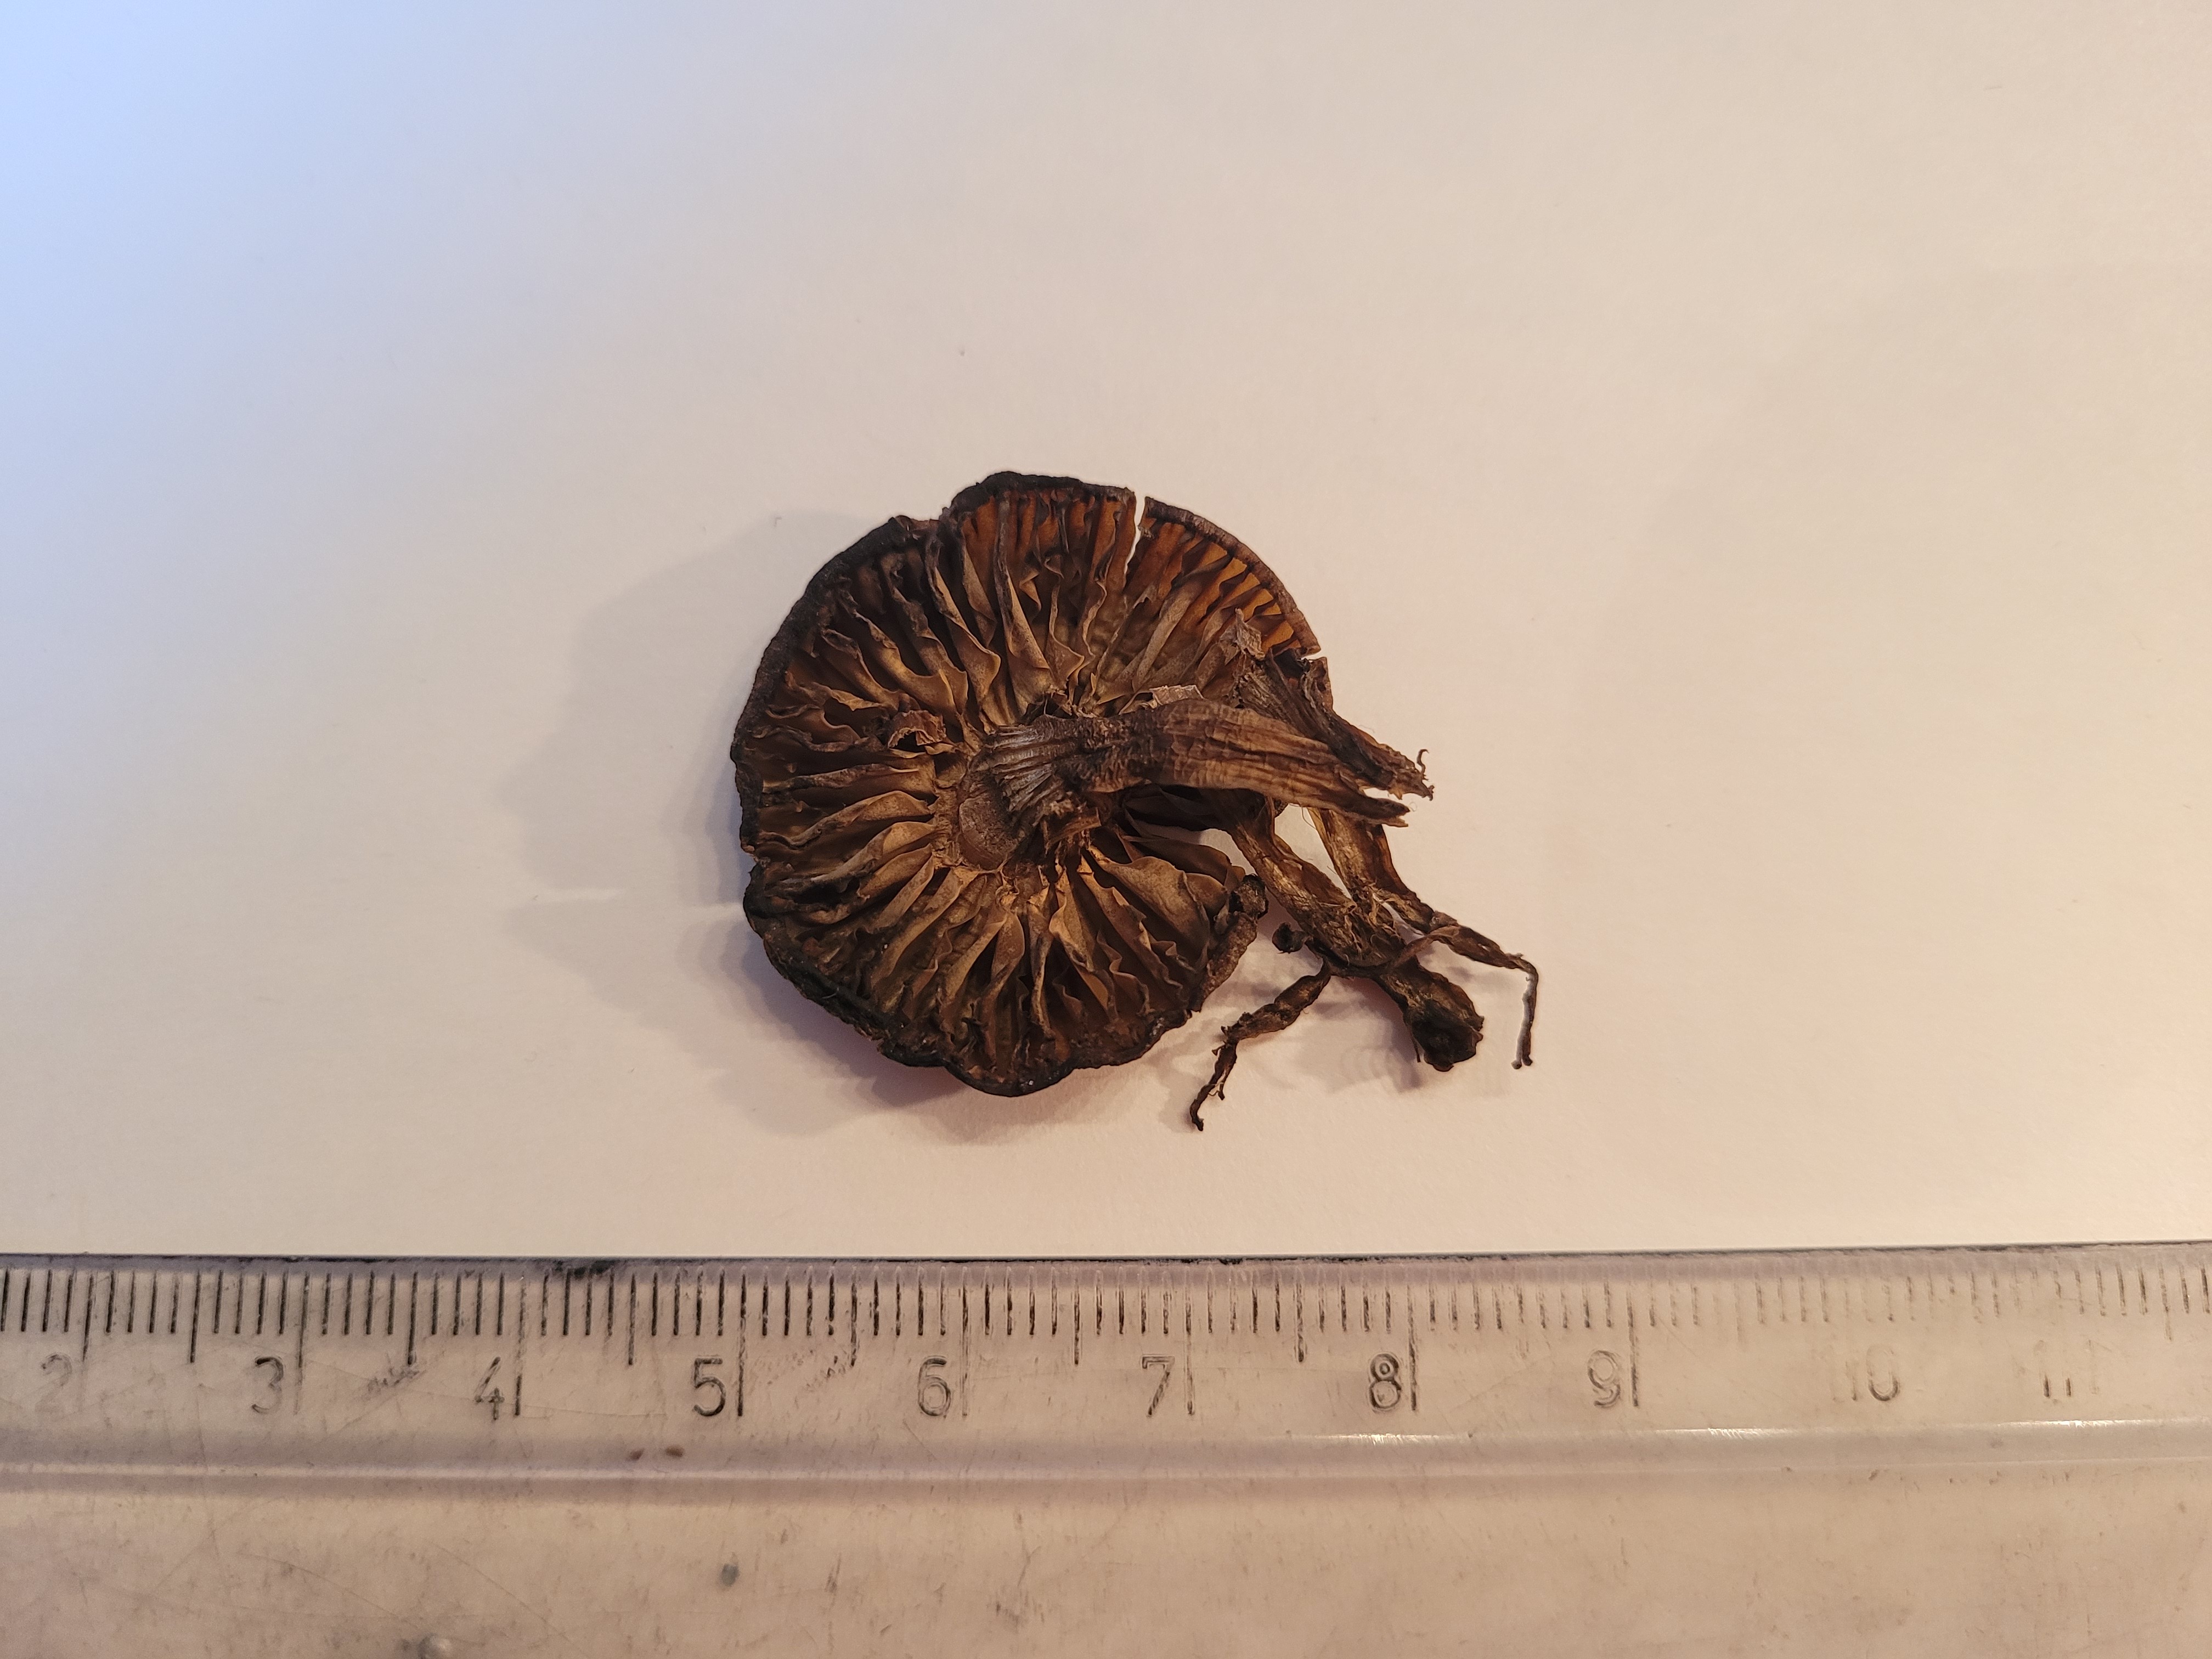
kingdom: Fungi
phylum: Basidiomycota
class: Agaricomycetes
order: Agaricales
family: Hygrophoraceae
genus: Hygrocybe
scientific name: Hygrocybe ingrata
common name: Dingy waxcap
